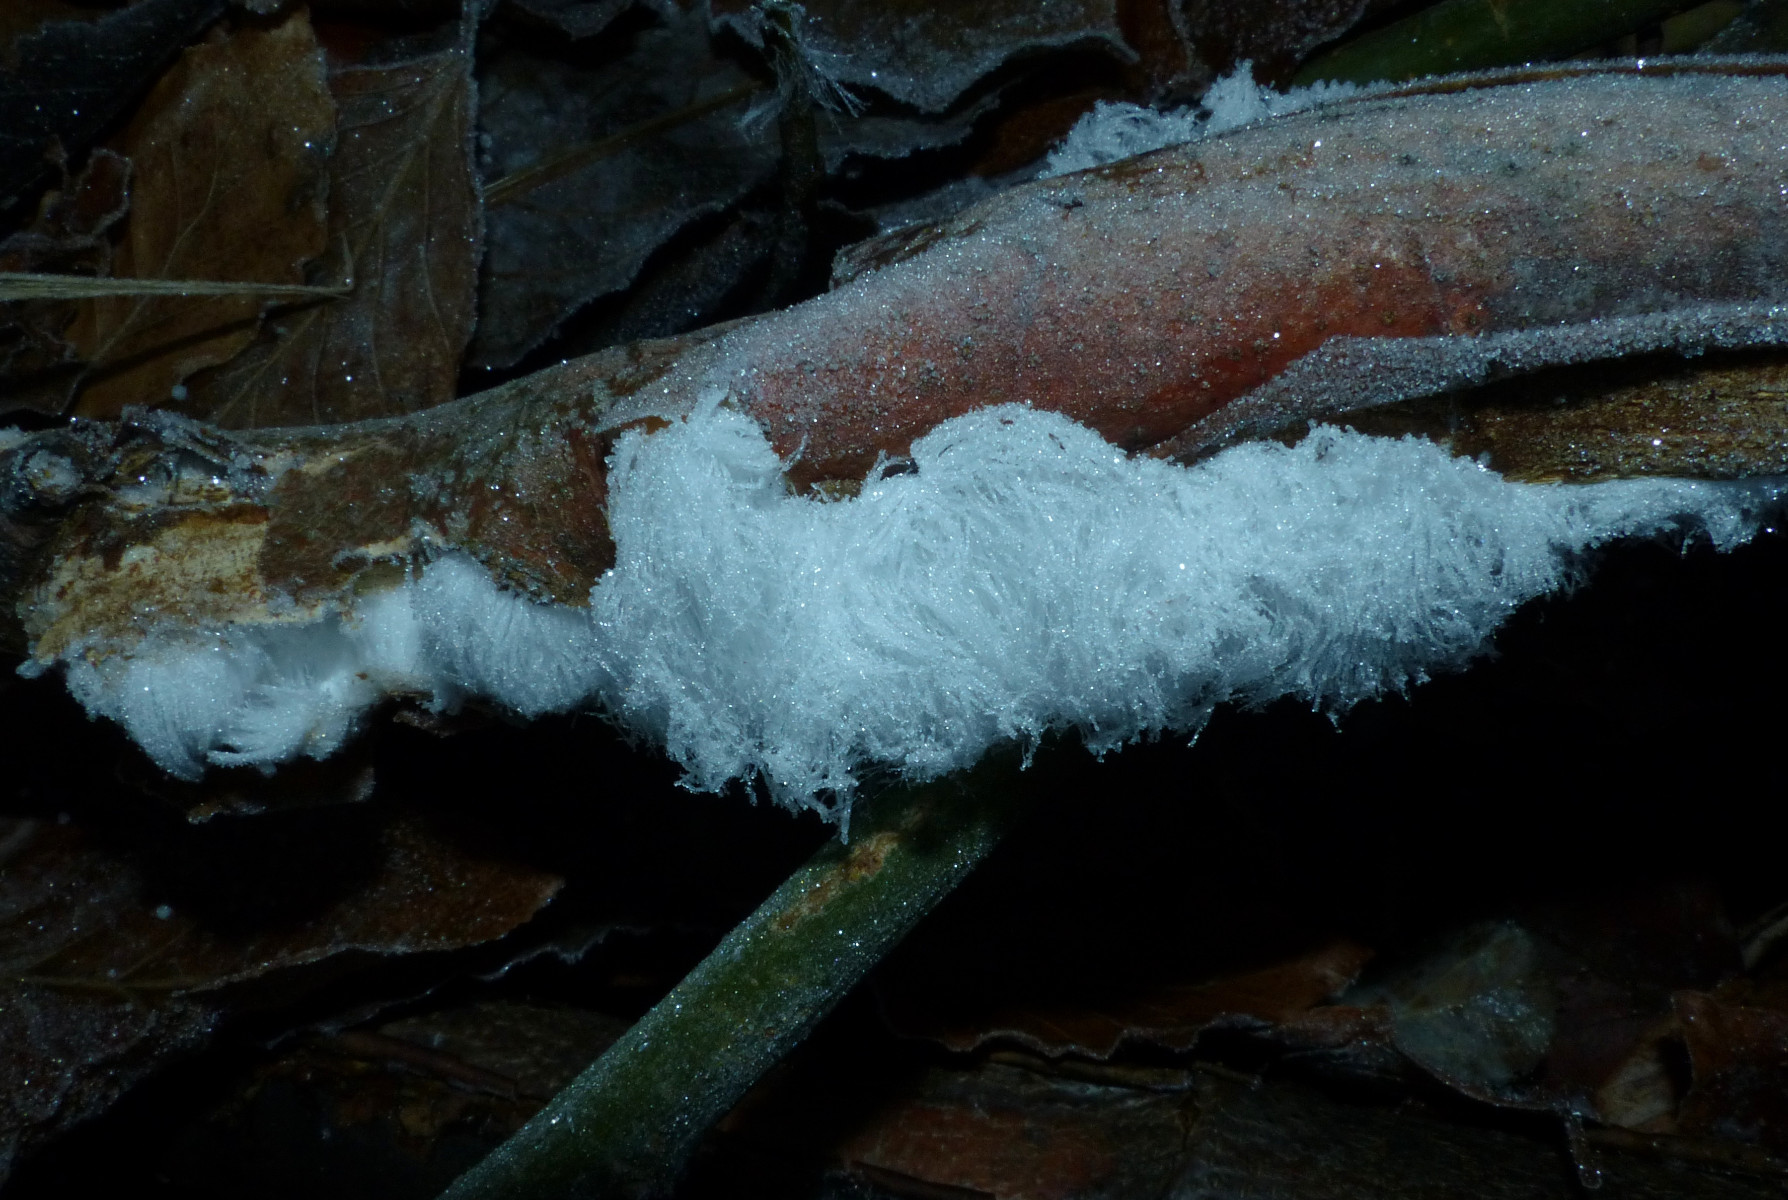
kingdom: Fungi
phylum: Basidiomycota
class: Tremellomycetes
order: Tremellales
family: Exidiaceae
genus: Exidiopsis
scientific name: Exidiopsis effusa
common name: smuk bævrehinde
